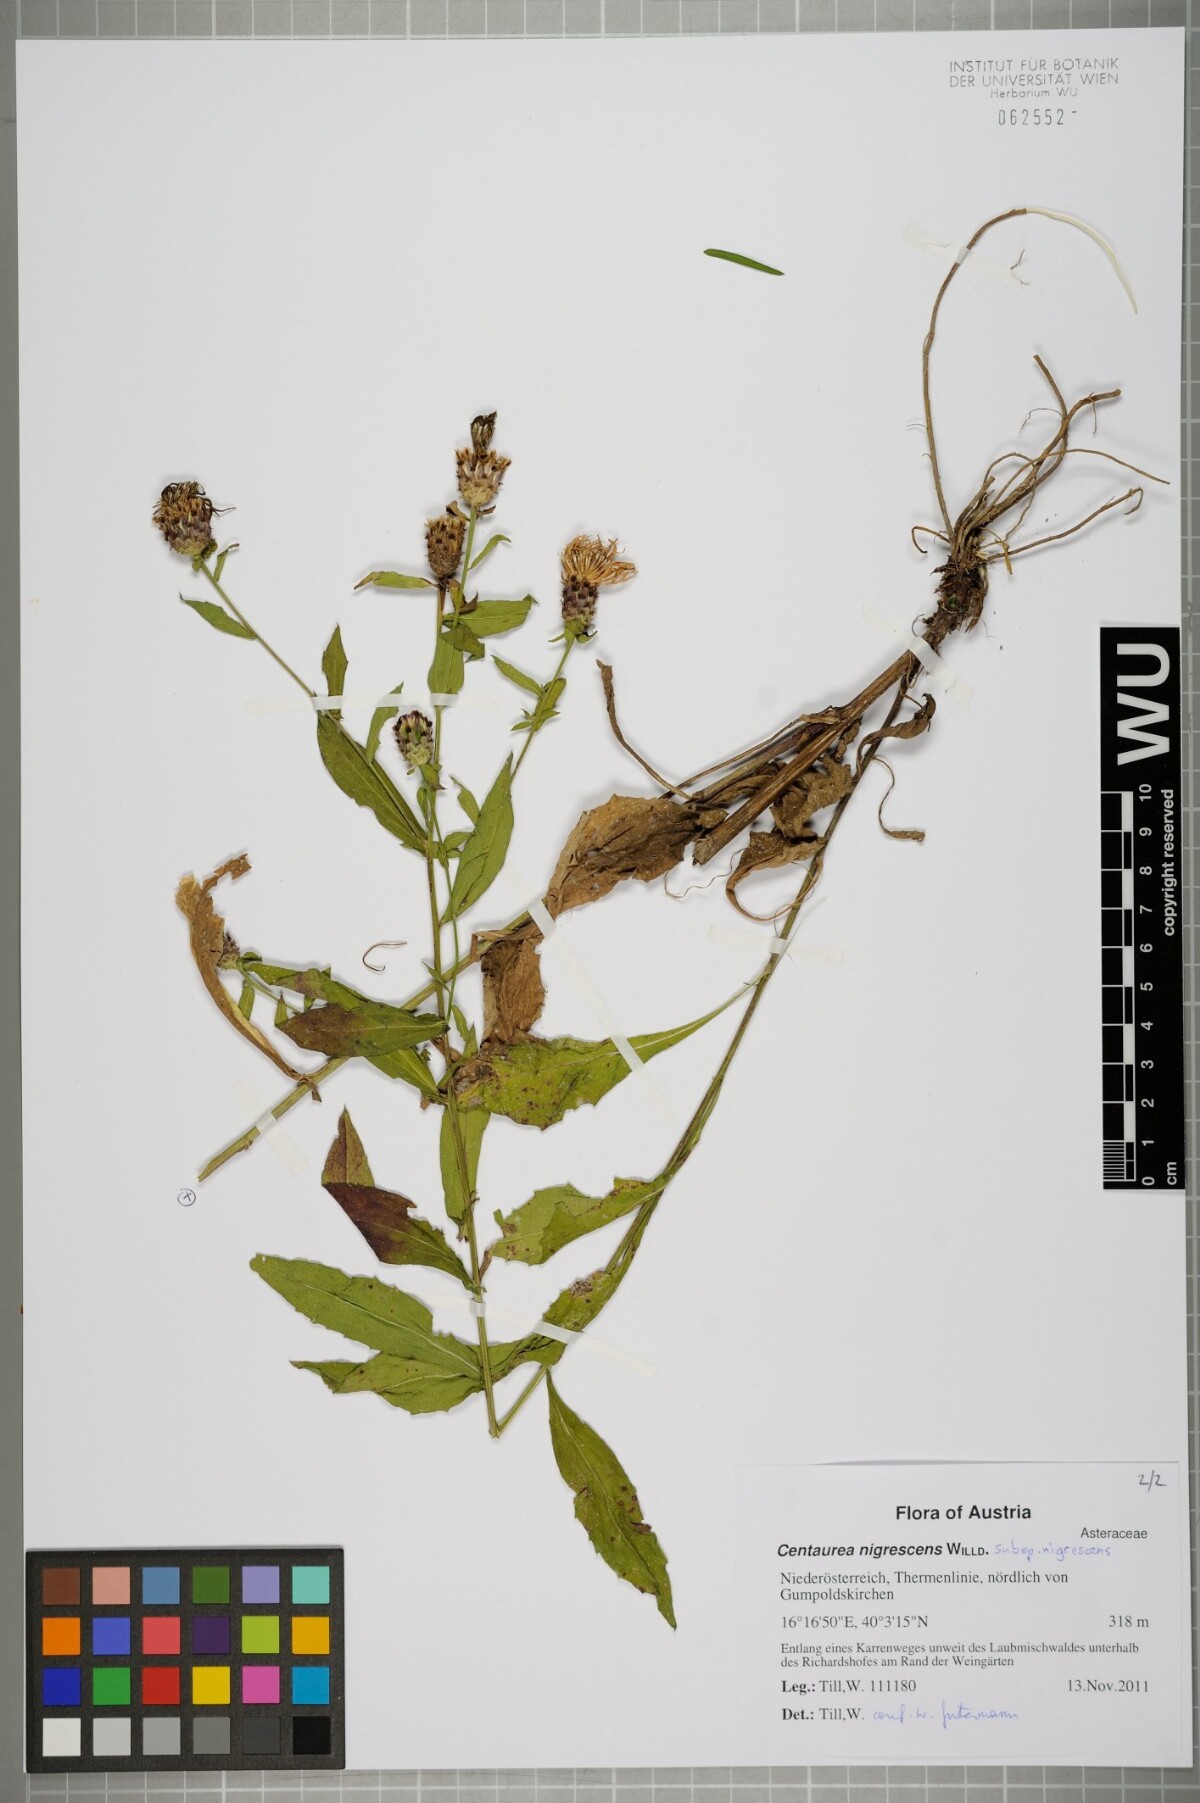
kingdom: Plantae
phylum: Tracheophyta
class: Magnoliopsida
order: Asterales
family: Asteraceae
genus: Centaurea
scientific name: Centaurea nigrescens
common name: Tyrol knapweed
